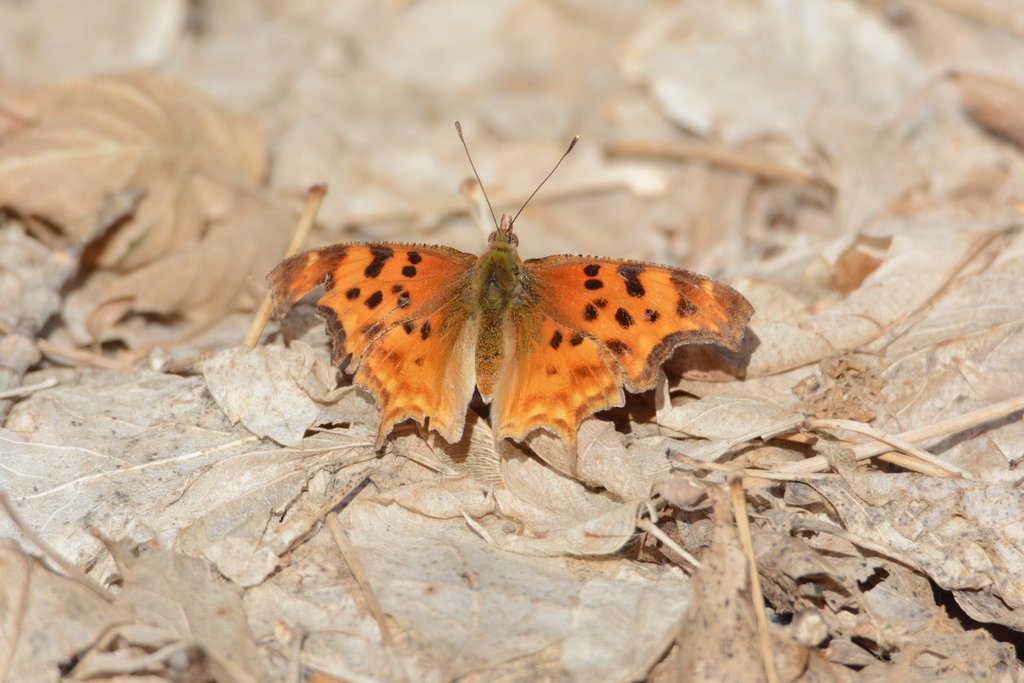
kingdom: Animalia
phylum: Arthropoda
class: Insecta
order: Lepidoptera
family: Nymphalidae
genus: Polygonia
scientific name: Polygonia satyrus
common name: Satyr Comma
